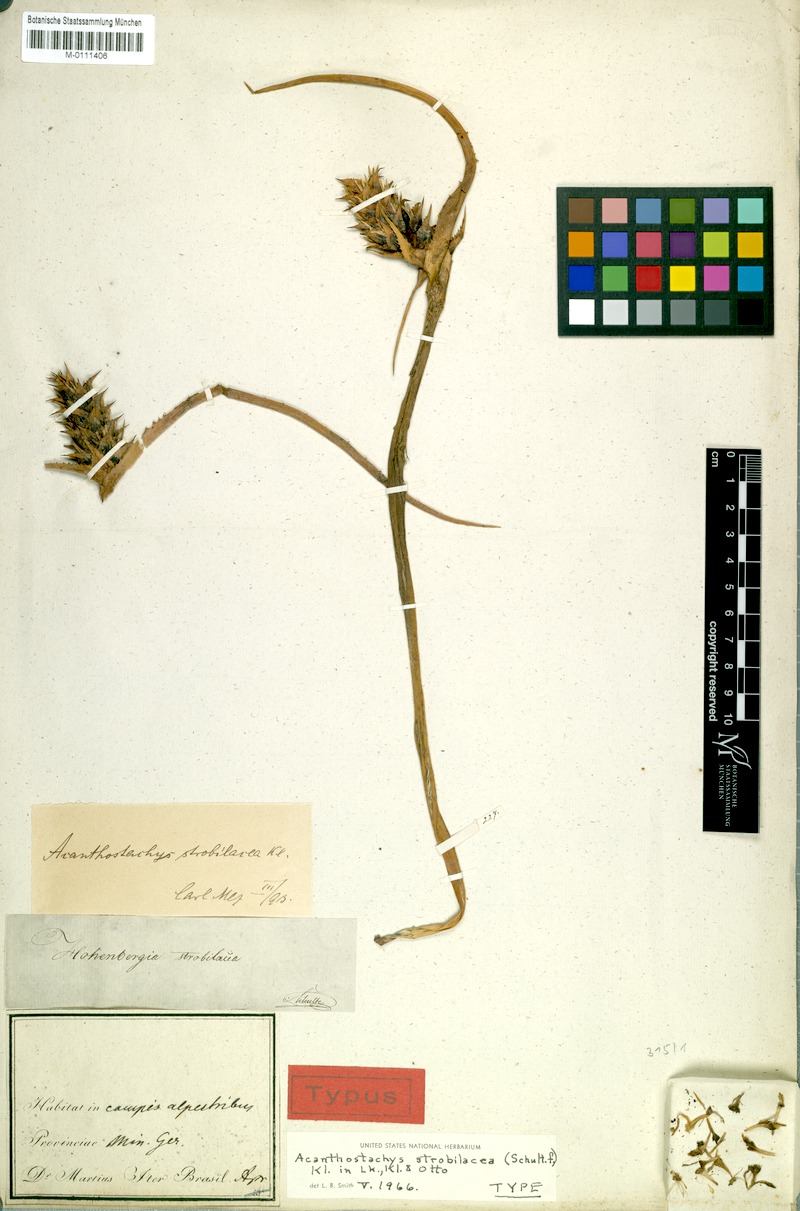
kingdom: Plantae
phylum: Tracheophyta
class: Liliopsida
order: Poales
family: Bromeliaceae
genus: Acanthostachys
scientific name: Acanthostachys strobilacea
